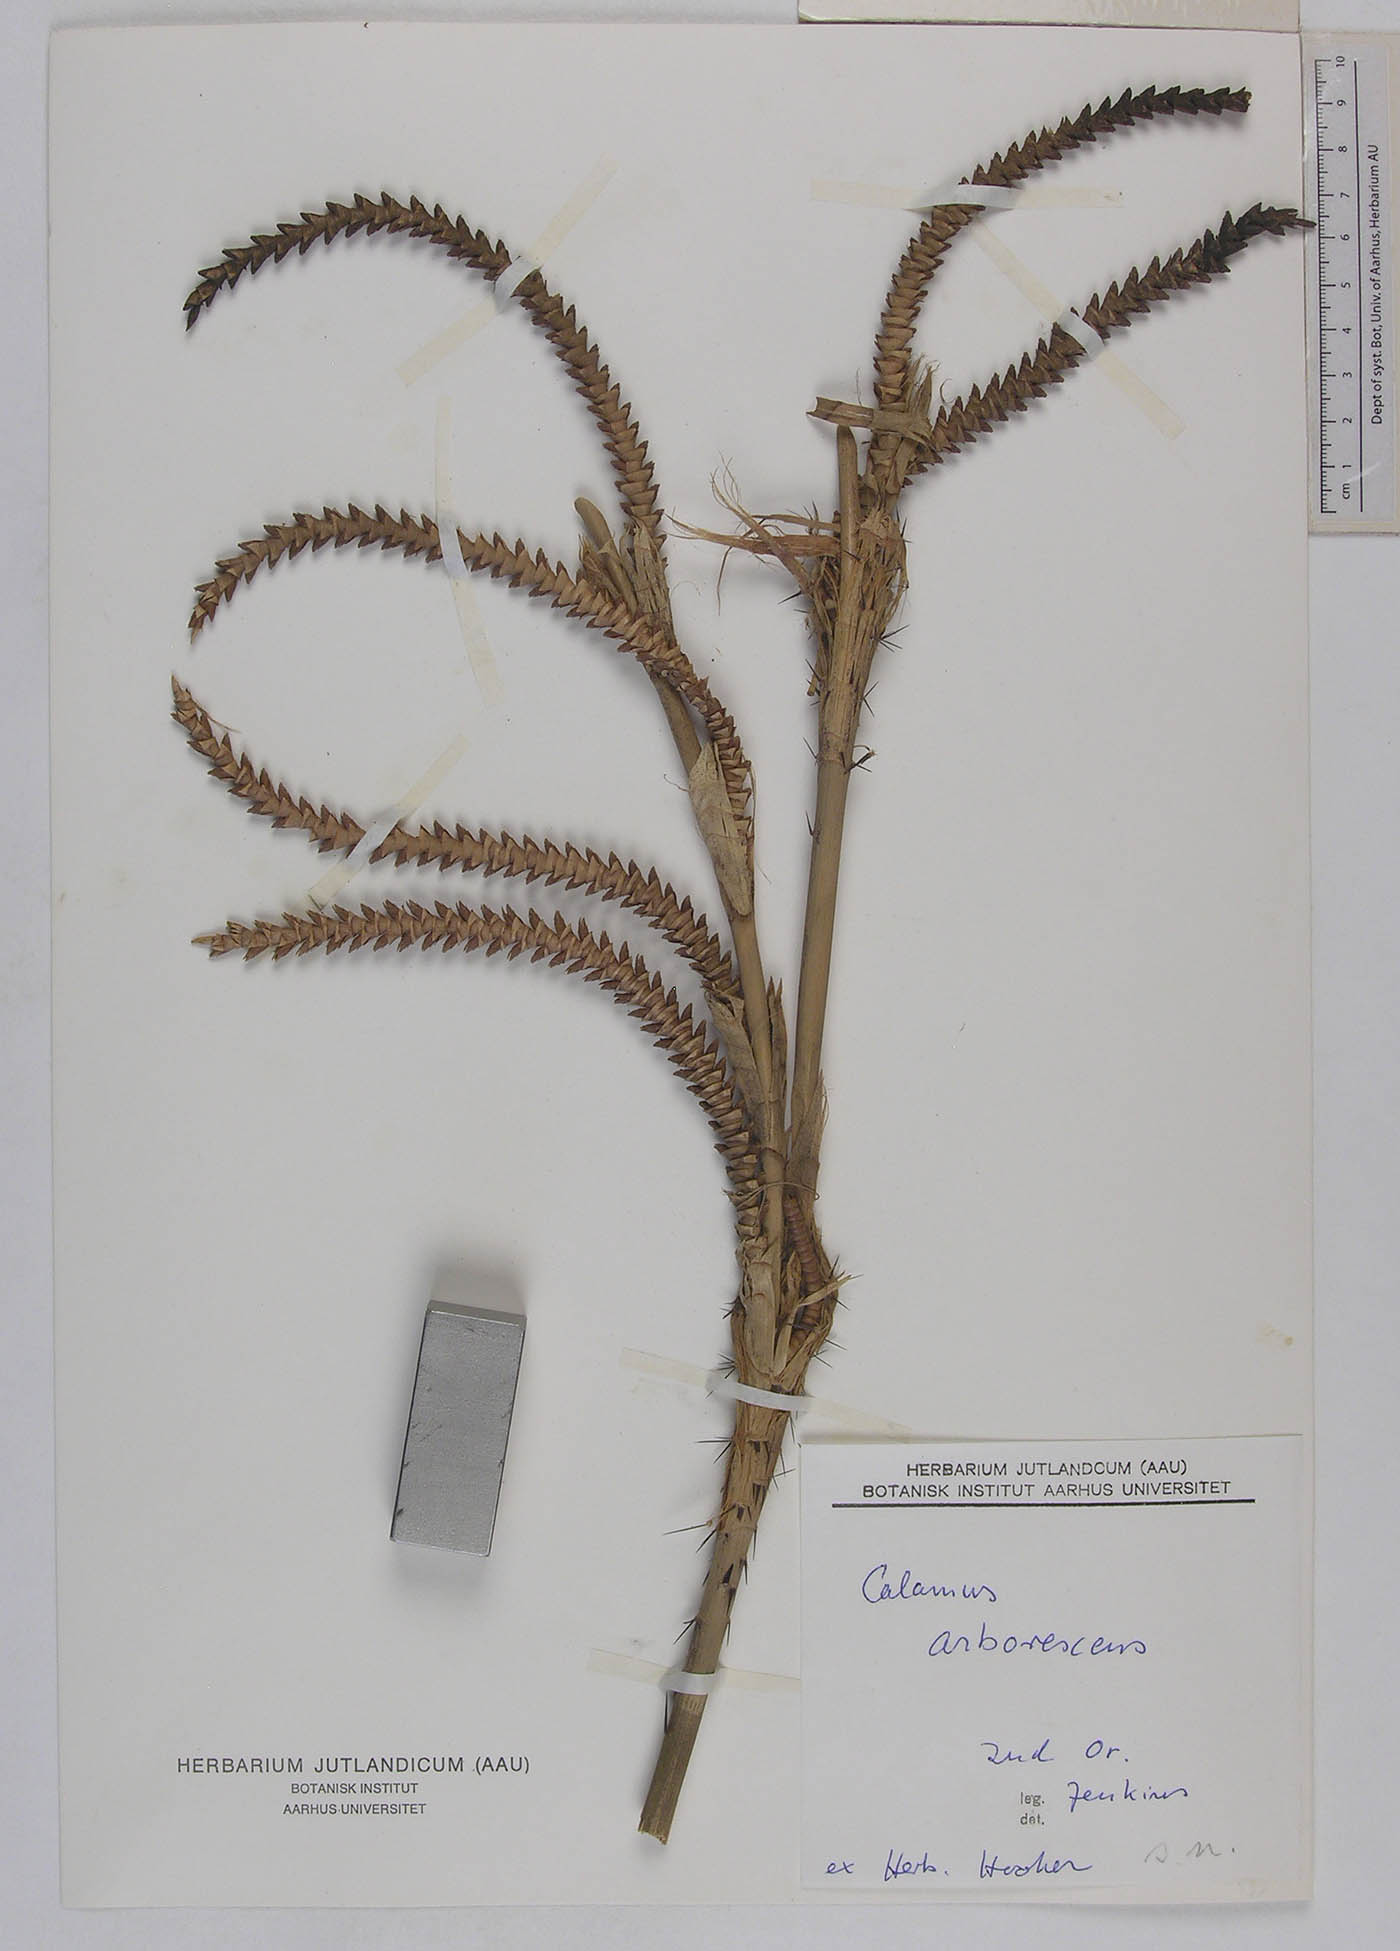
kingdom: Plantae
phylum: Tracheophyta
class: Liliopsida
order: Arecales
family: Arecaceae
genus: Calamus
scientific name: Calamus arborescens
